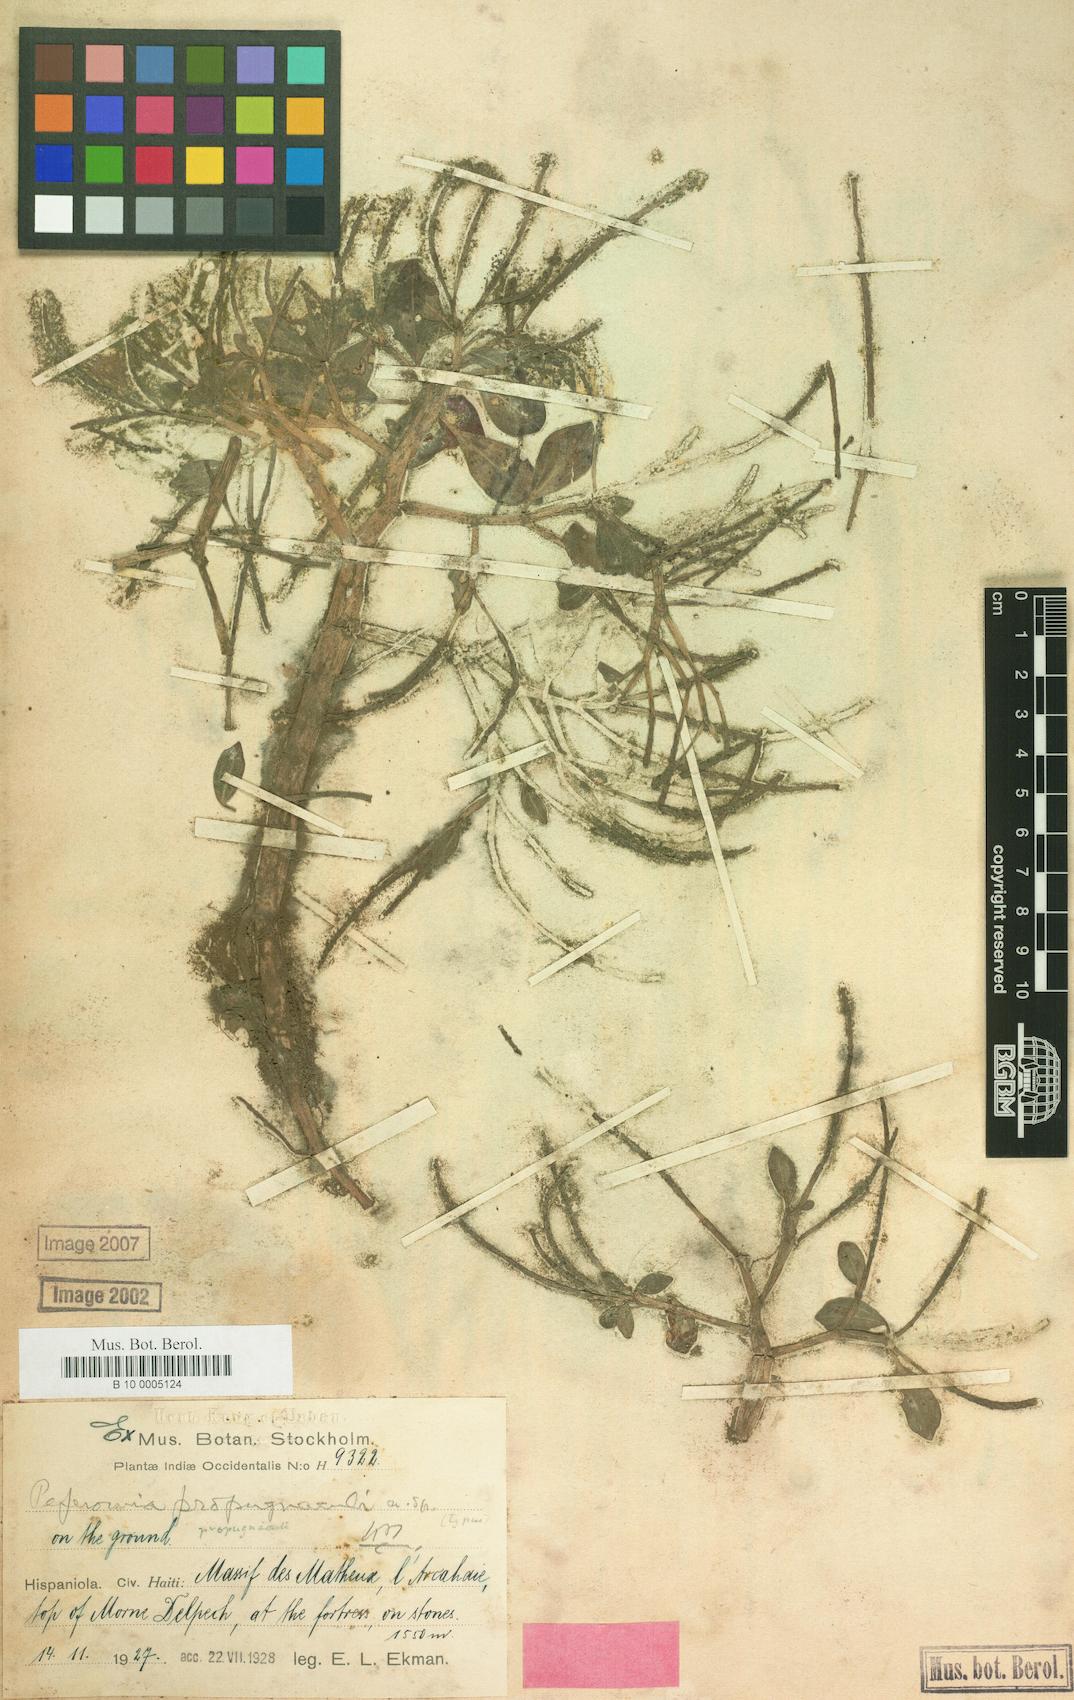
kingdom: Plantae
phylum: Tracheophyta
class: Magnoliopsida
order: Piperales
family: Piperaceae
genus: Peperomia
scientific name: Peperomia propugnaculi
